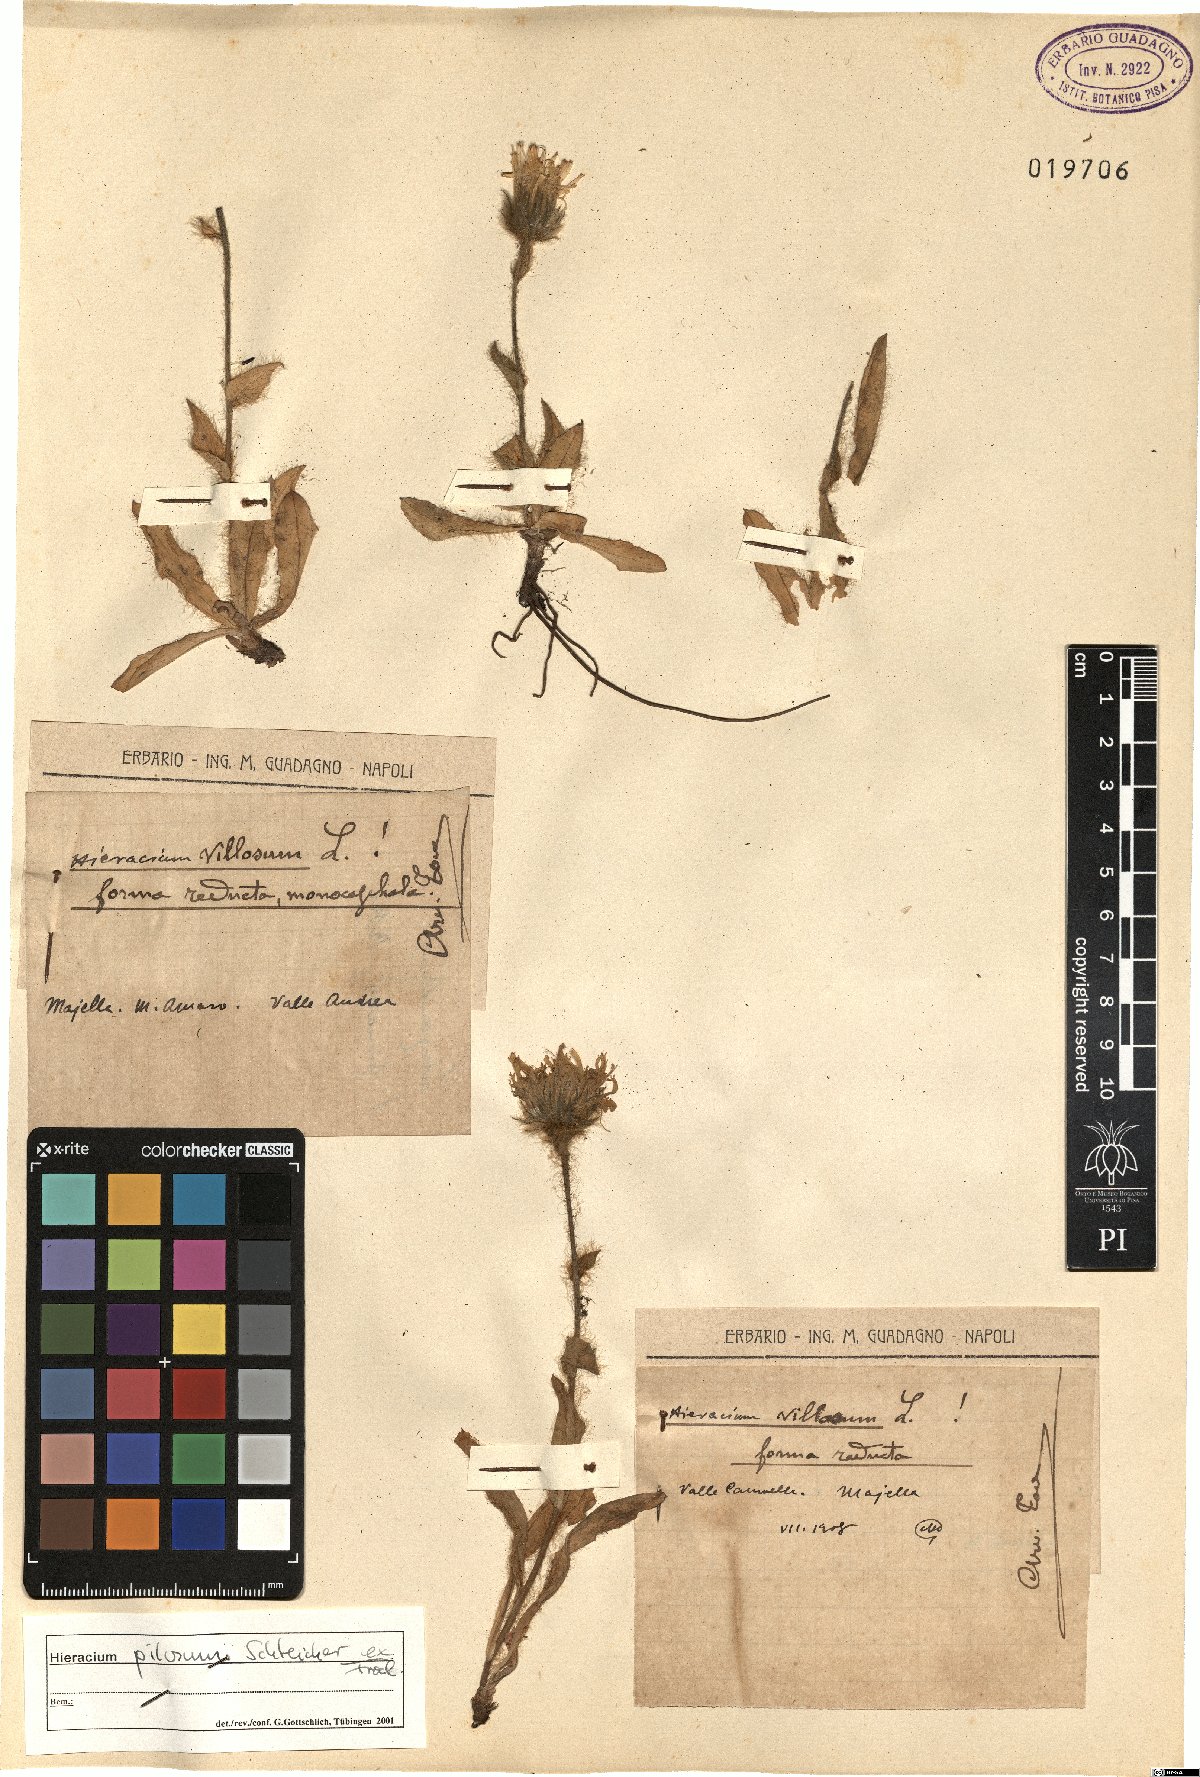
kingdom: Plantae
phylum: Tracheophyta
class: Magnoliopsida
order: Asterales
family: Asteraceae
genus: Hieracium
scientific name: Hieracium pilosum
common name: Fimbriate-pitted hawkweed
